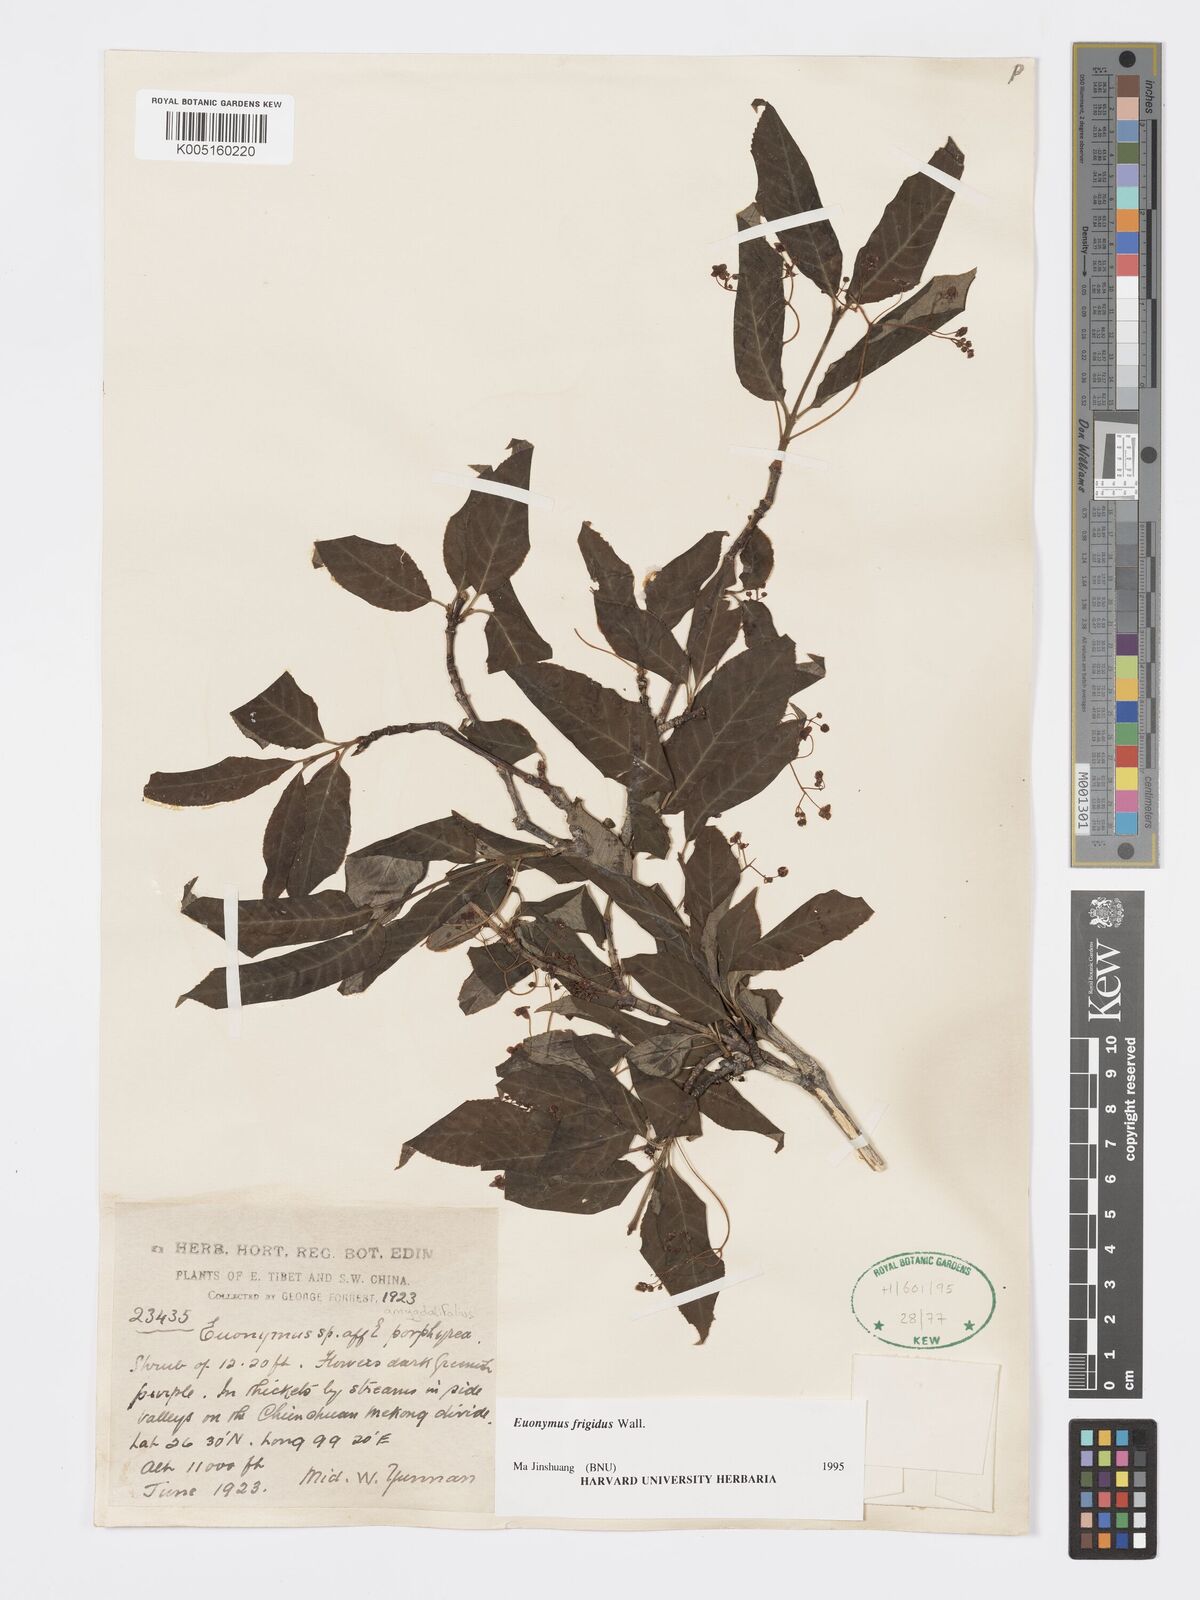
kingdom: Plantae
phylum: Tracheophyta
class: Magnoliopsida
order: Celastrales
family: Celastraceae
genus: Euonymus
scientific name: Euonymus frigidus
